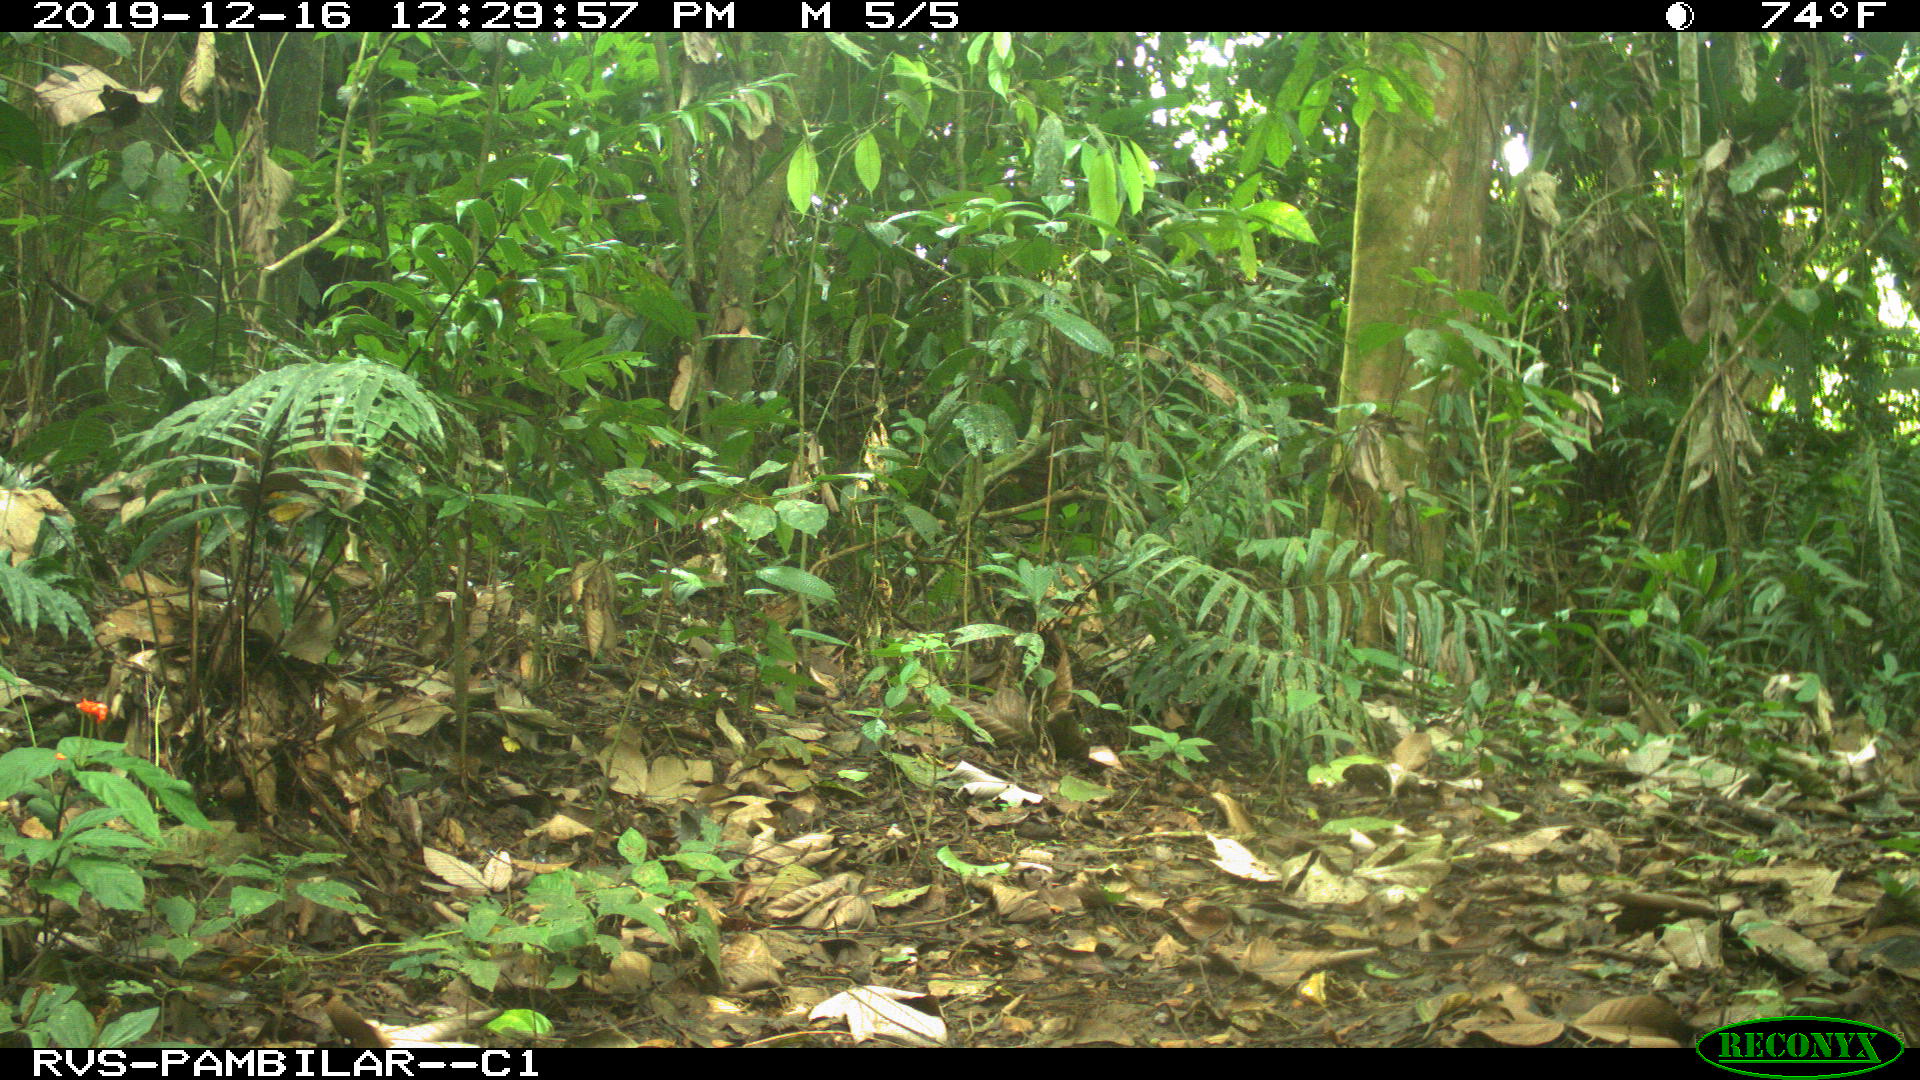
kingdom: Animalia
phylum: Chordata
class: Mammalia
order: Rodentia
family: Dasyproctidae
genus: Dasyprocta
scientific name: Dasyprocta punctata
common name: Central american agouti
